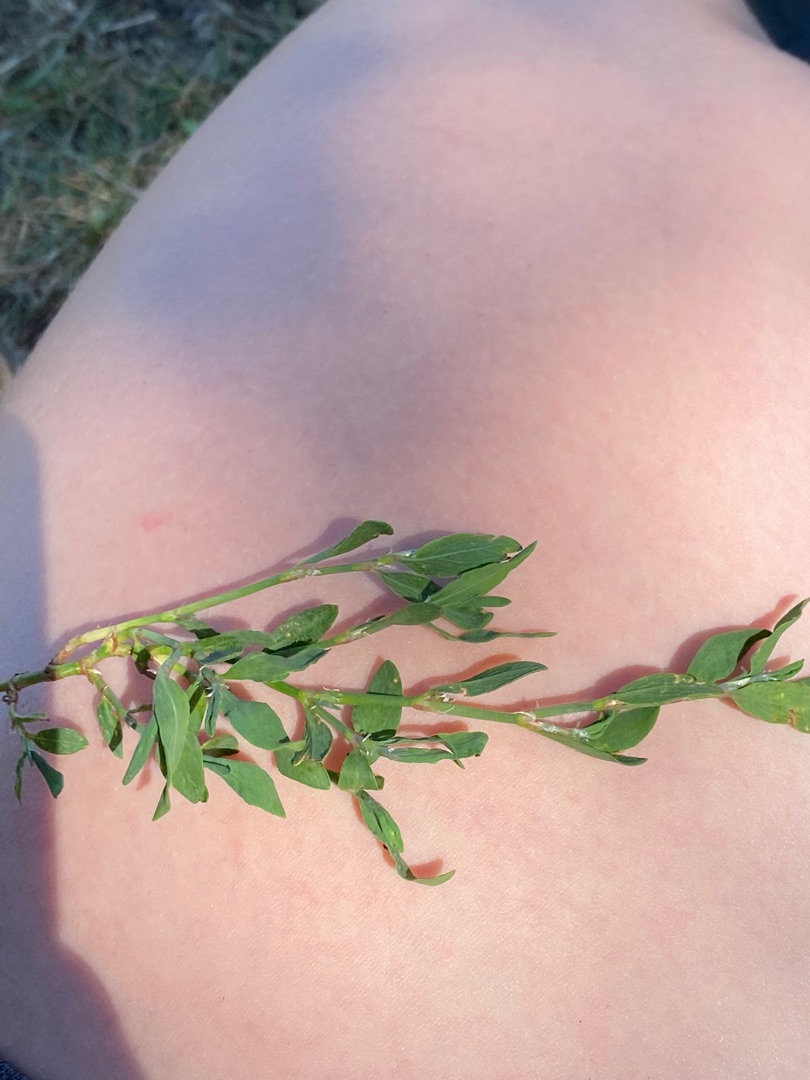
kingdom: Plantae
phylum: Tracheophyta
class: Magnoliopsida
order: Caryophyllales
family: Polygonaceae
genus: Polygonum
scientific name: Polygonum aviculare
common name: Vej-pileurt
